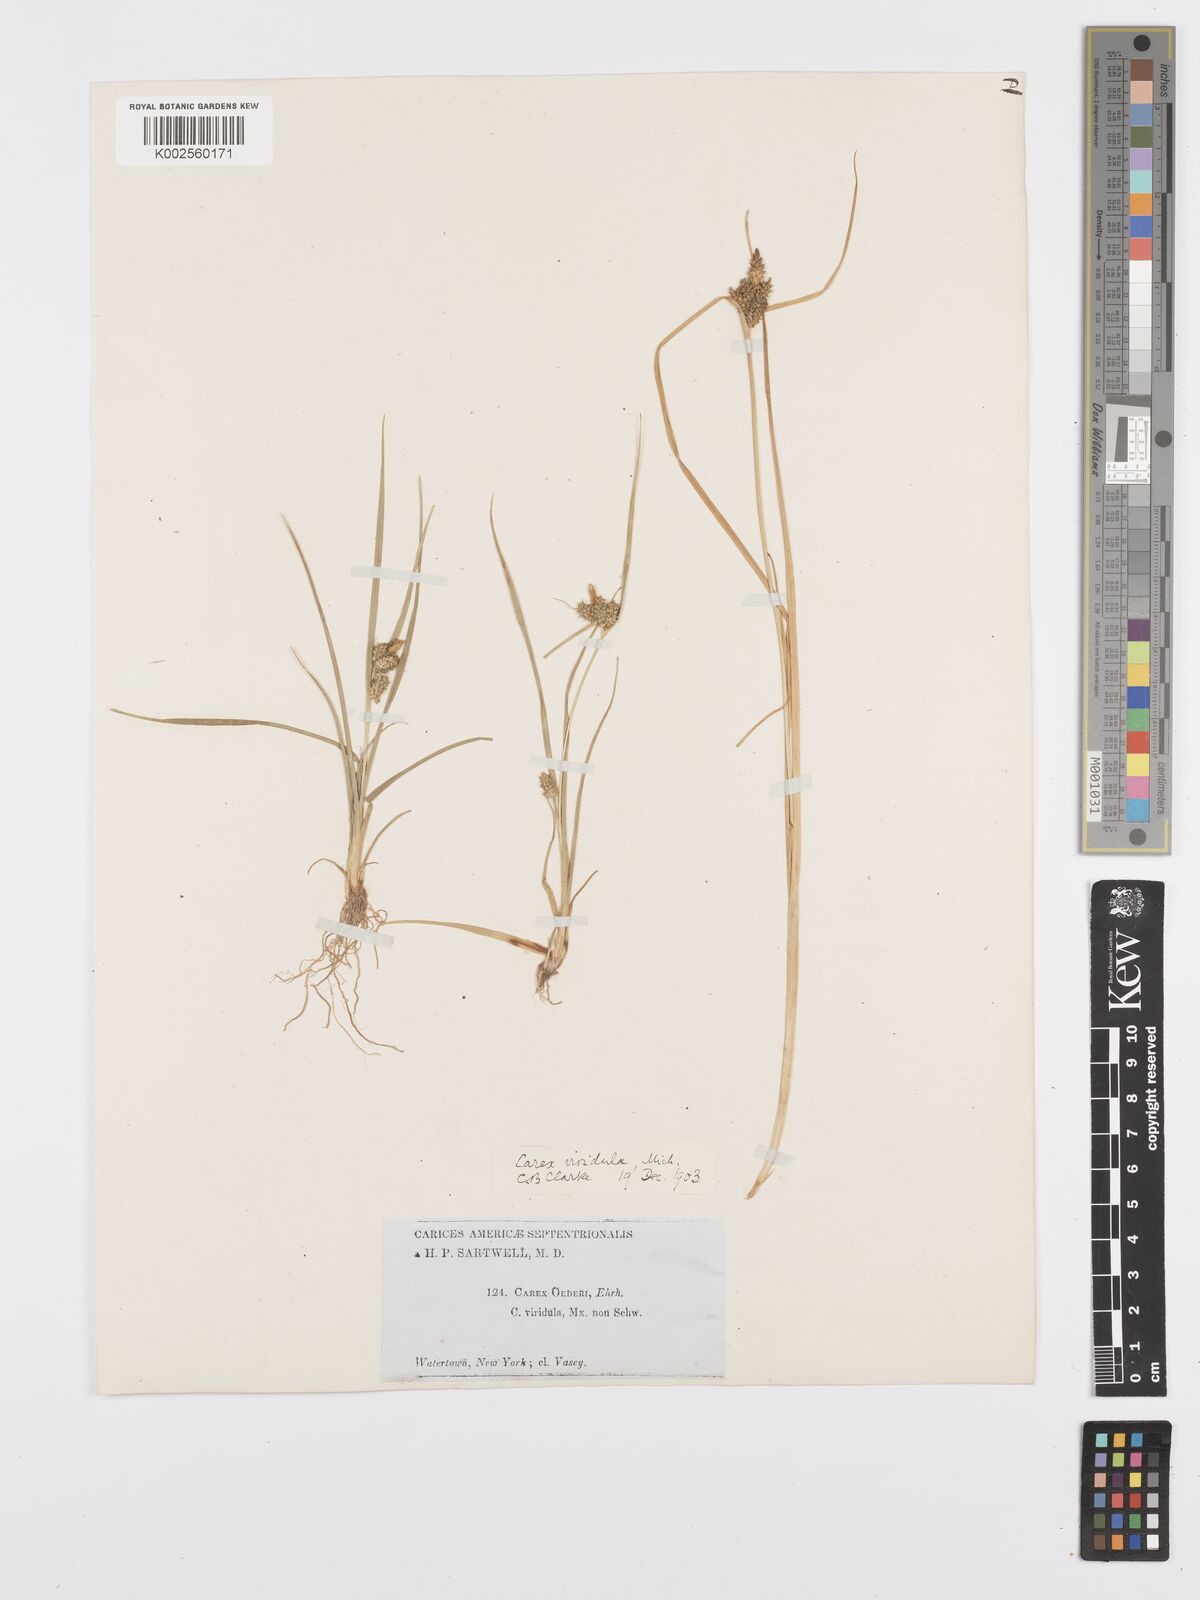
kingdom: Plantae
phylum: Tracheophyta
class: Liliopsida
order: Poales
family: Cyperaceae
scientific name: Cyperaceae
